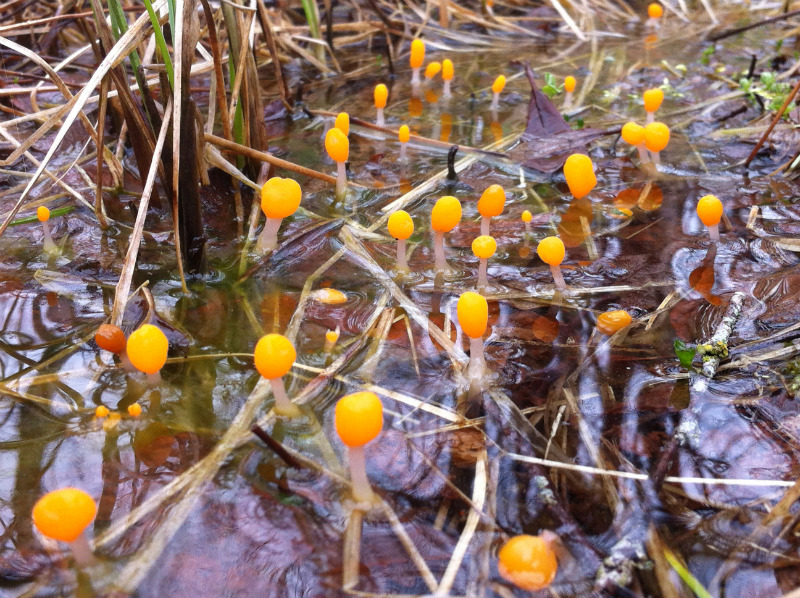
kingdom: Fungi
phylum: Ascomycota
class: Leotiomycetes
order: Helotiales
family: Cenangiaceae
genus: Mitrula
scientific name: Mitrula paludosa
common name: gul nøkketunge
